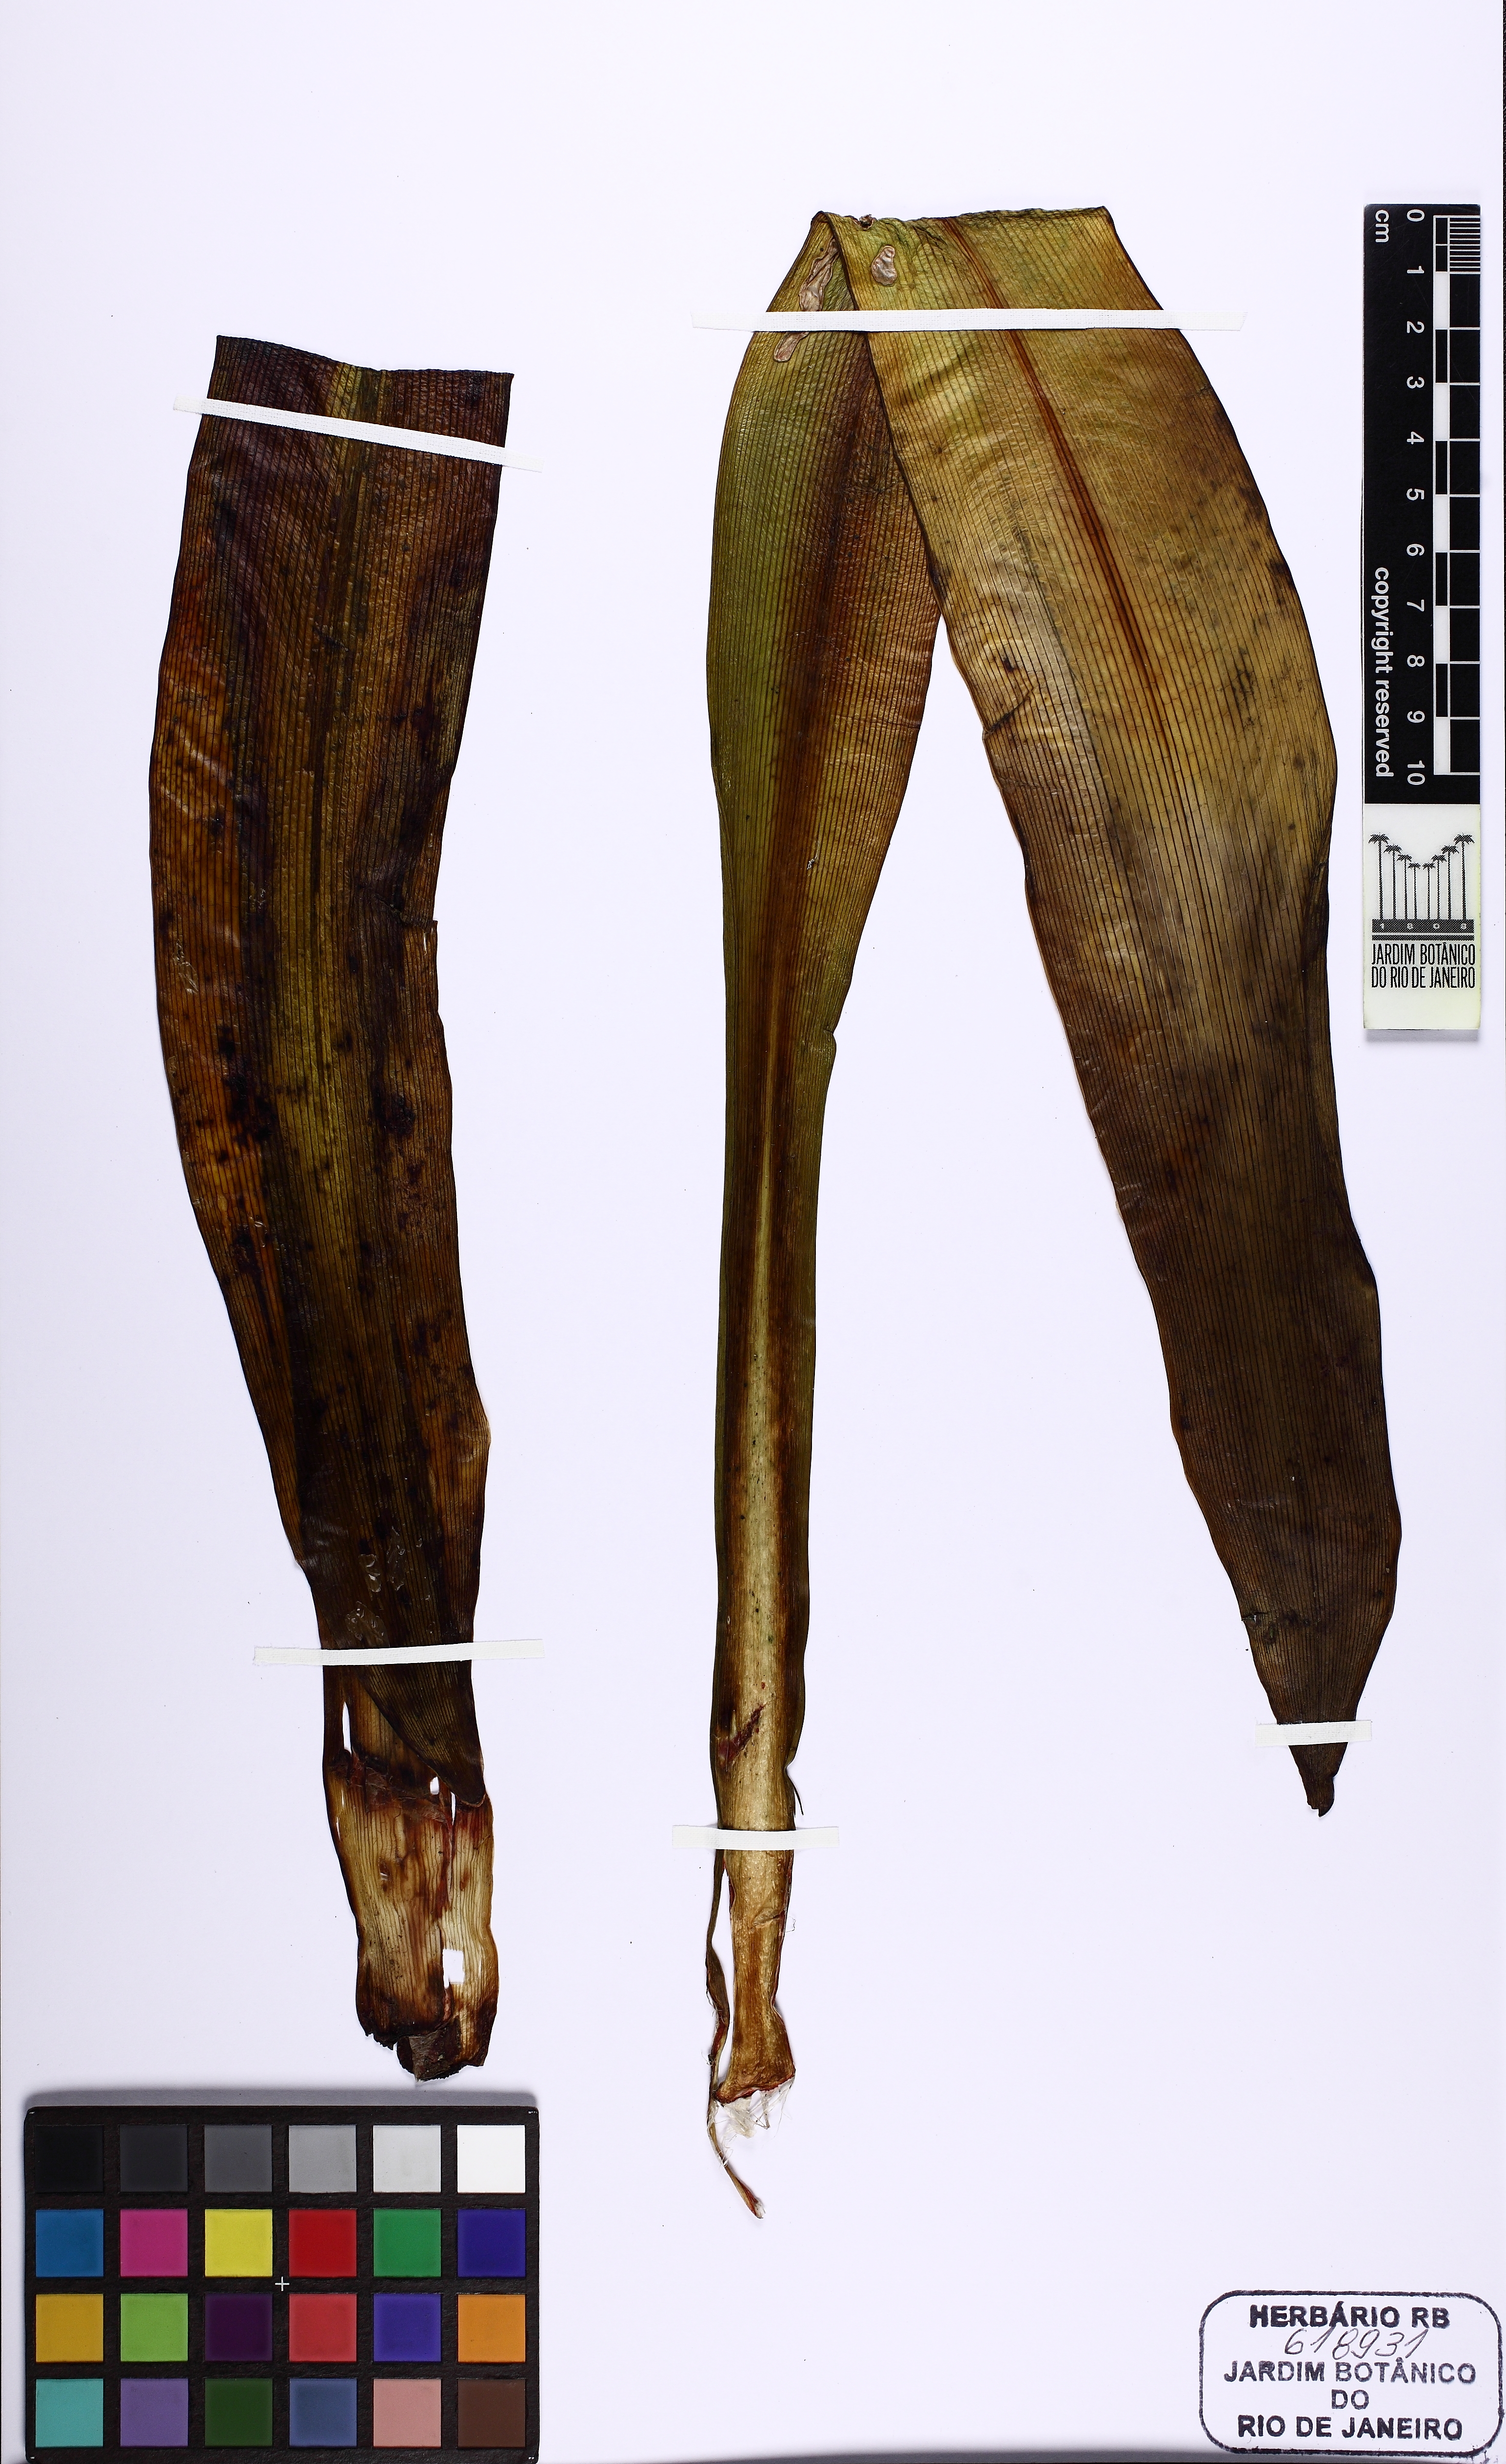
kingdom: Plantae
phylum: Tracheophyta
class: Liliopsida
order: Asparagales
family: Amaryllidaceae
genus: Hippeastrum
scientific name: Hippeastrum aulicum
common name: Lily-of-the-palace
